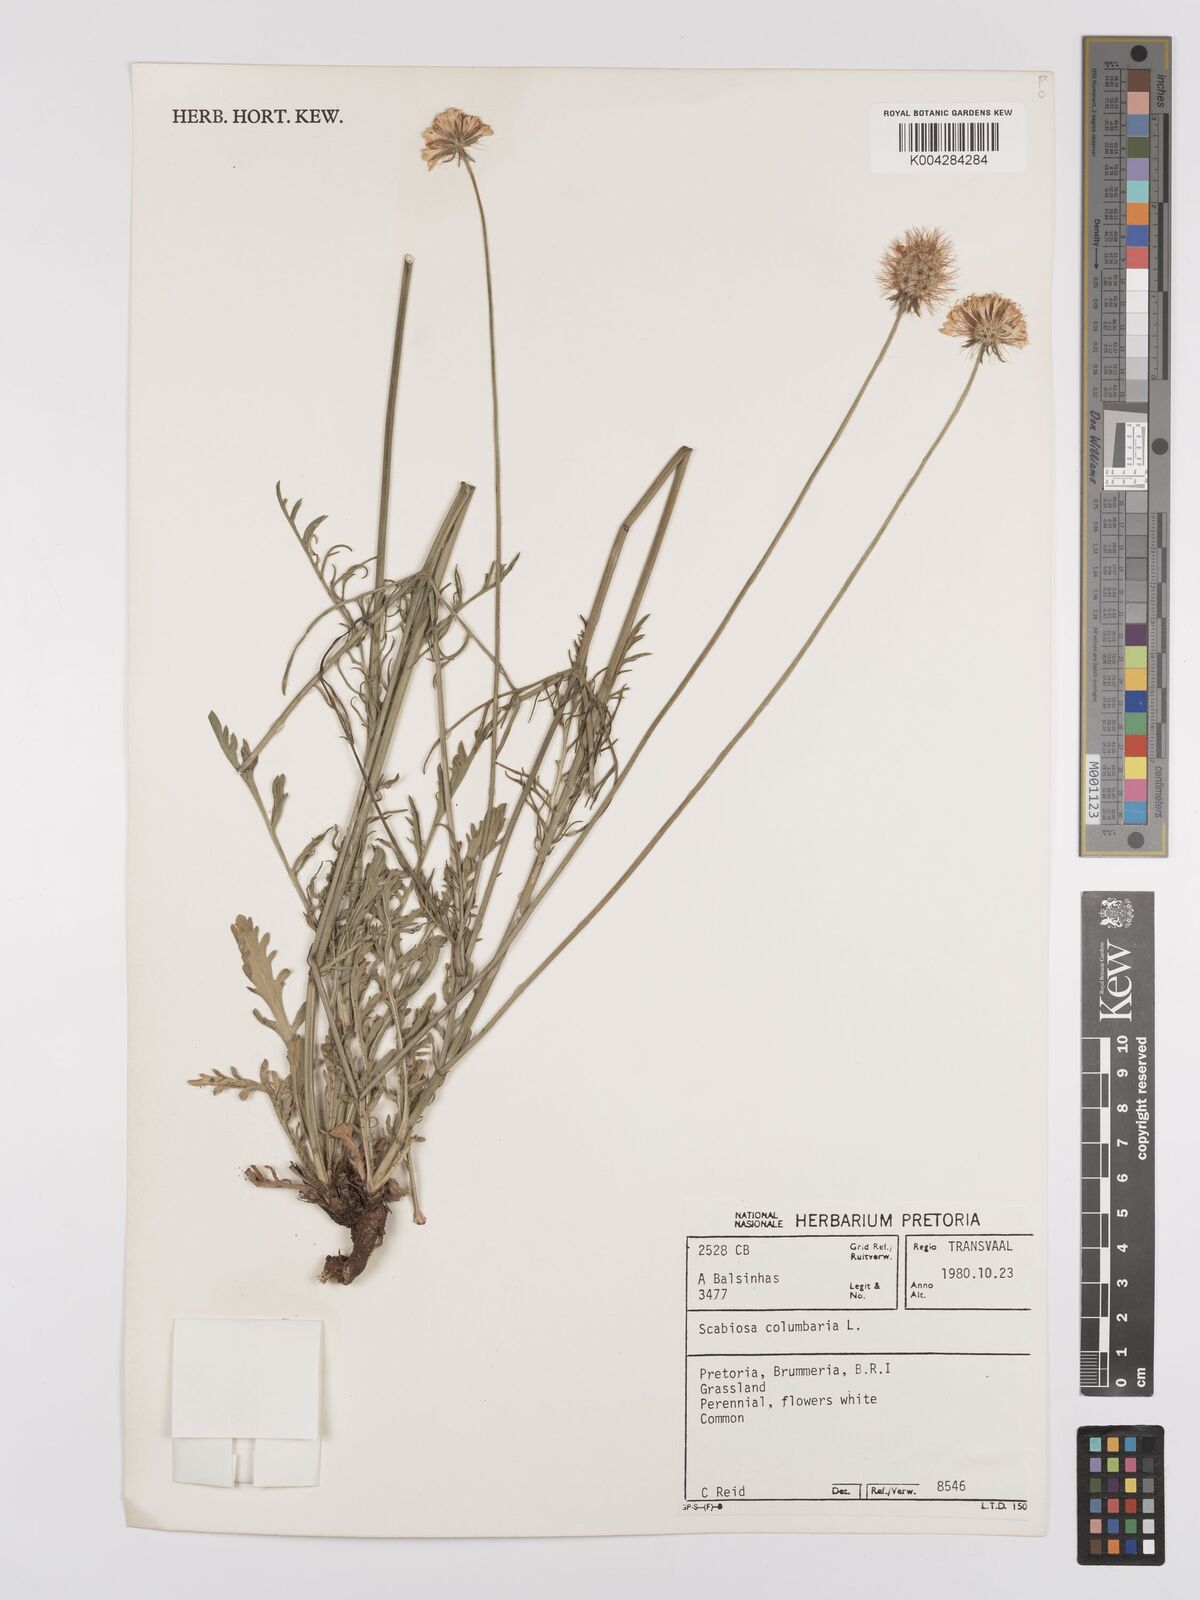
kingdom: Plantae
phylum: Tracheophyta
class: Magnoliopsida
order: Dipsacales
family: Caprifoliaceae
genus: Scabiosa
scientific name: Scabiosa columbaria
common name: Small scabious
